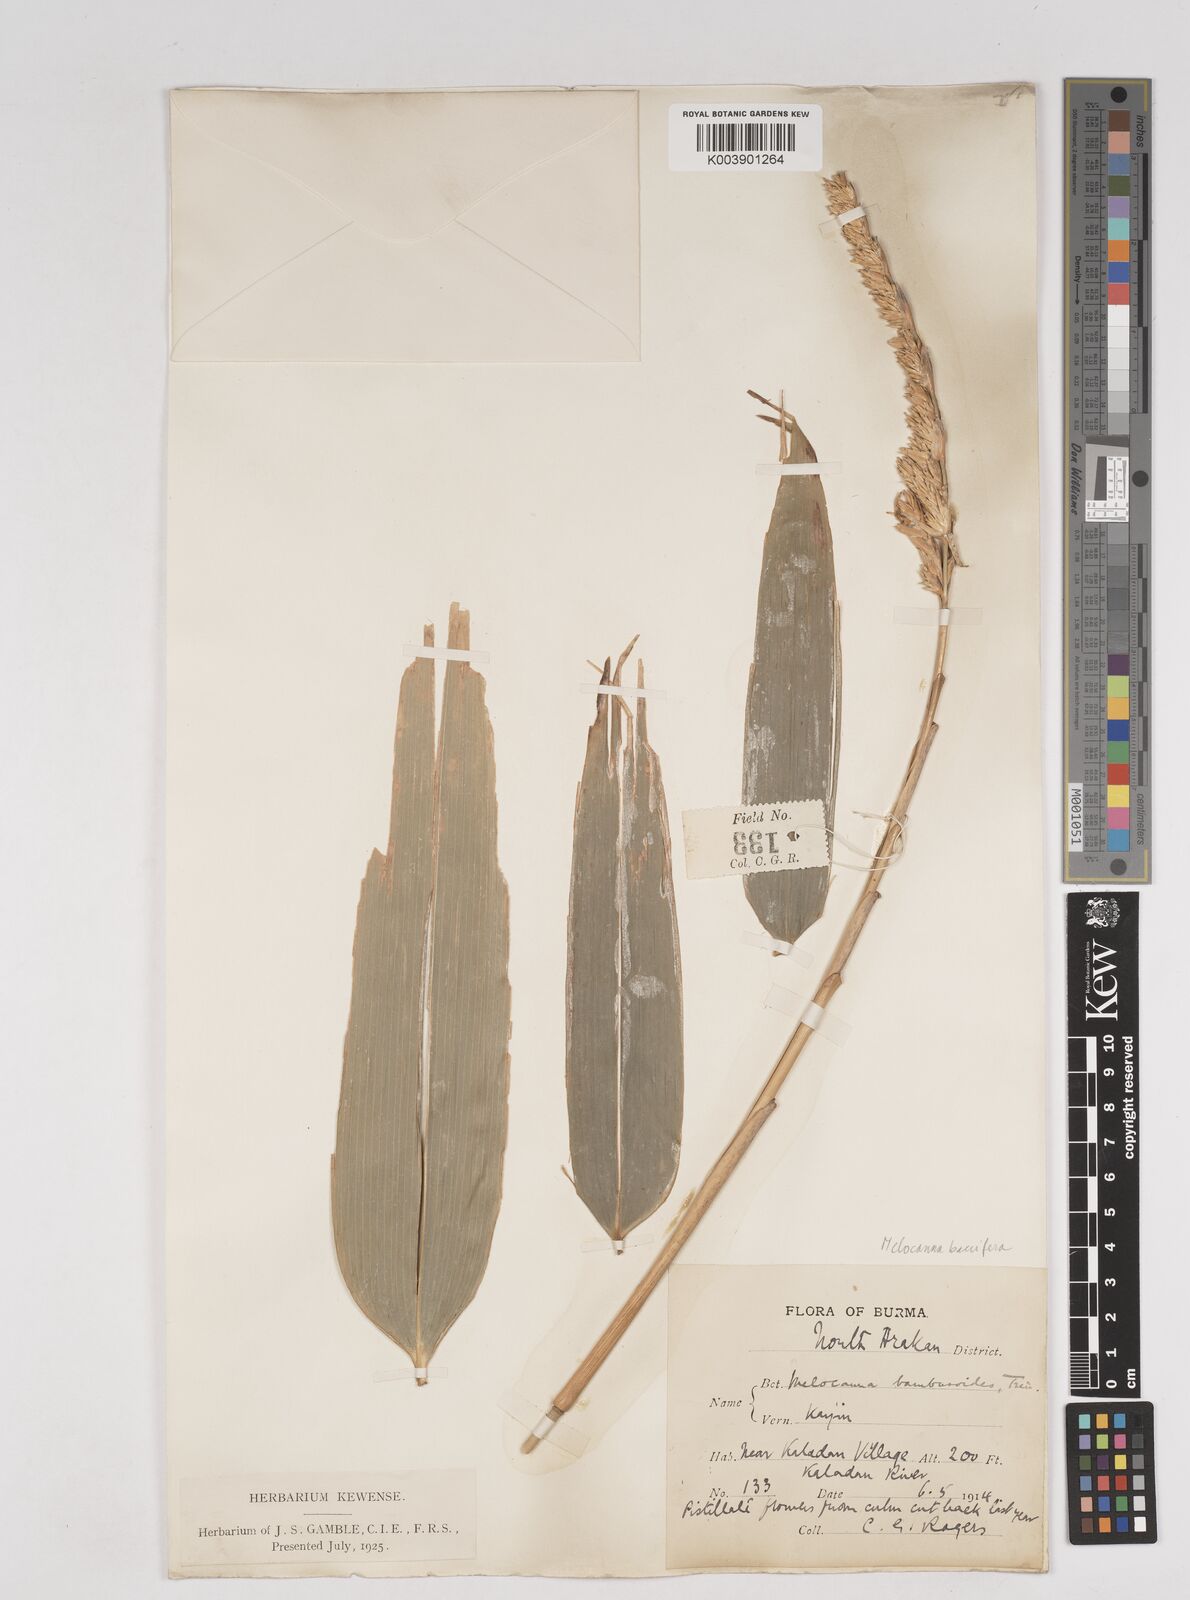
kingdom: Plantae
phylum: Tracheophyta
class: Liliopsida
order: Poales
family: Poaceae
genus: Melocanna
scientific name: Melocanna baccifera
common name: Berry bamboo
